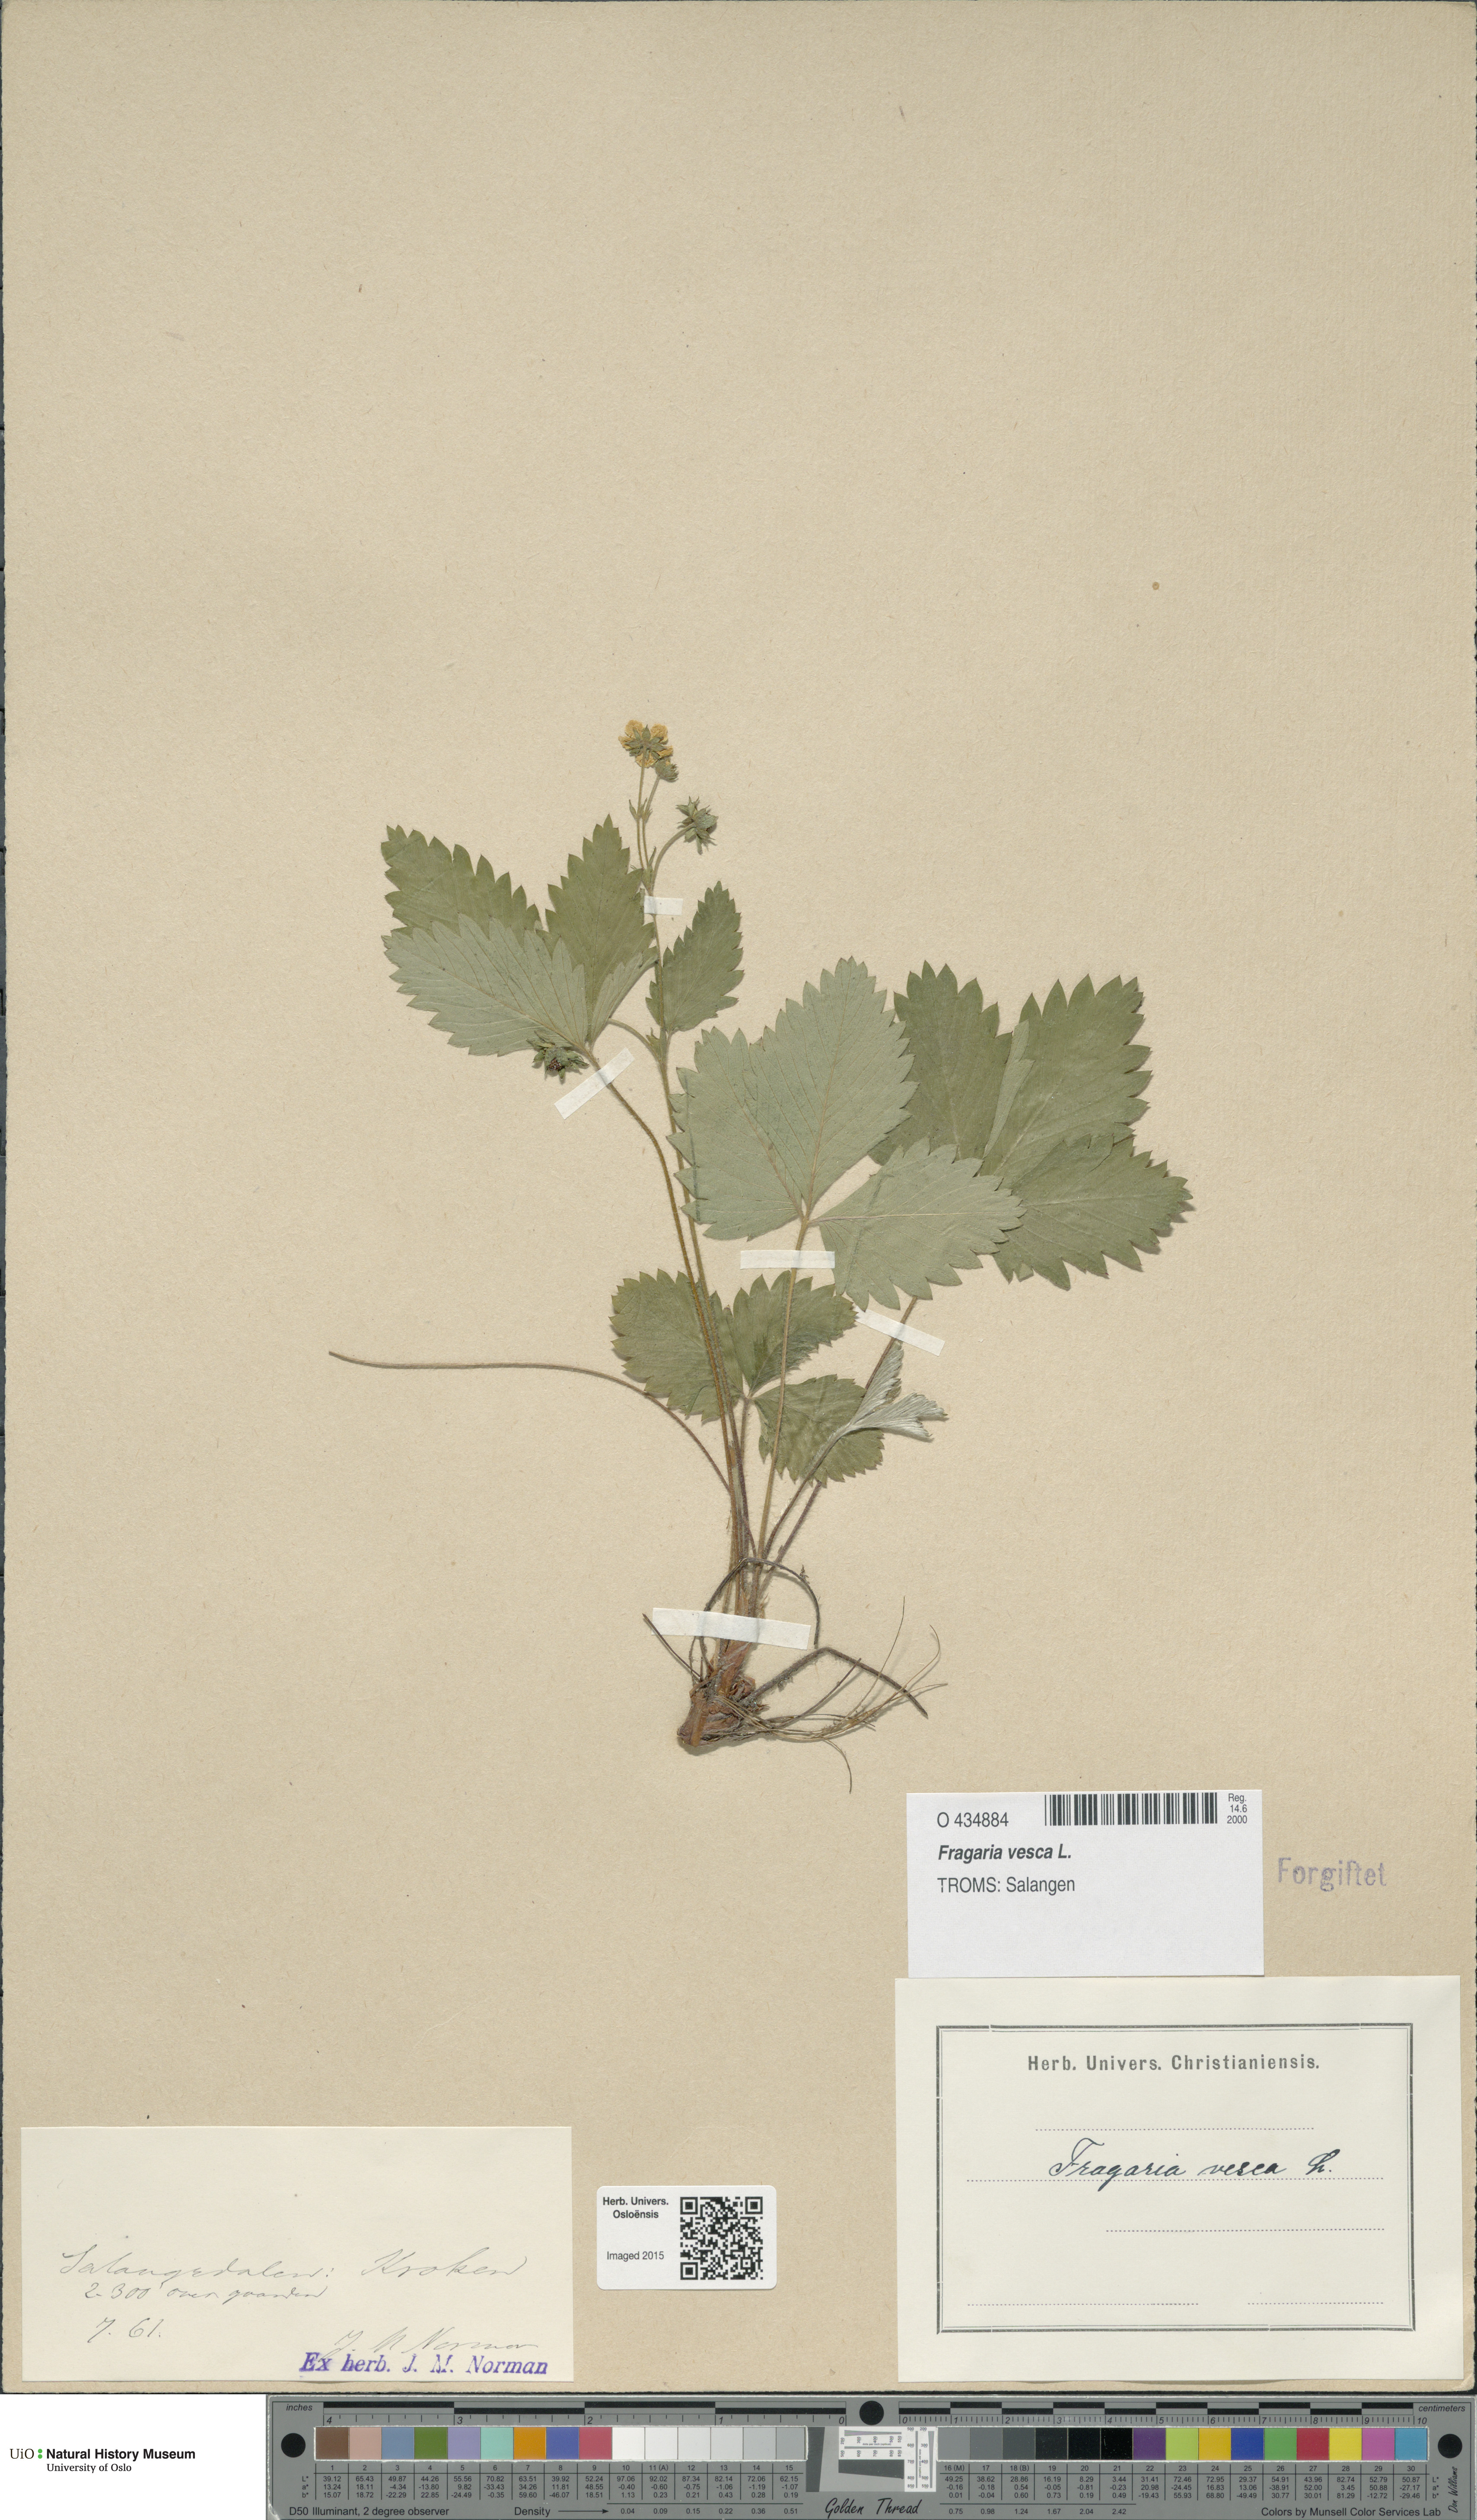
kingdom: Plantae
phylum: Tracheophyta
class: Magnoliopsida
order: Rosales
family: Rosaceae
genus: Fragaria
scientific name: Fragaria vesca
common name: Wild strawberry
